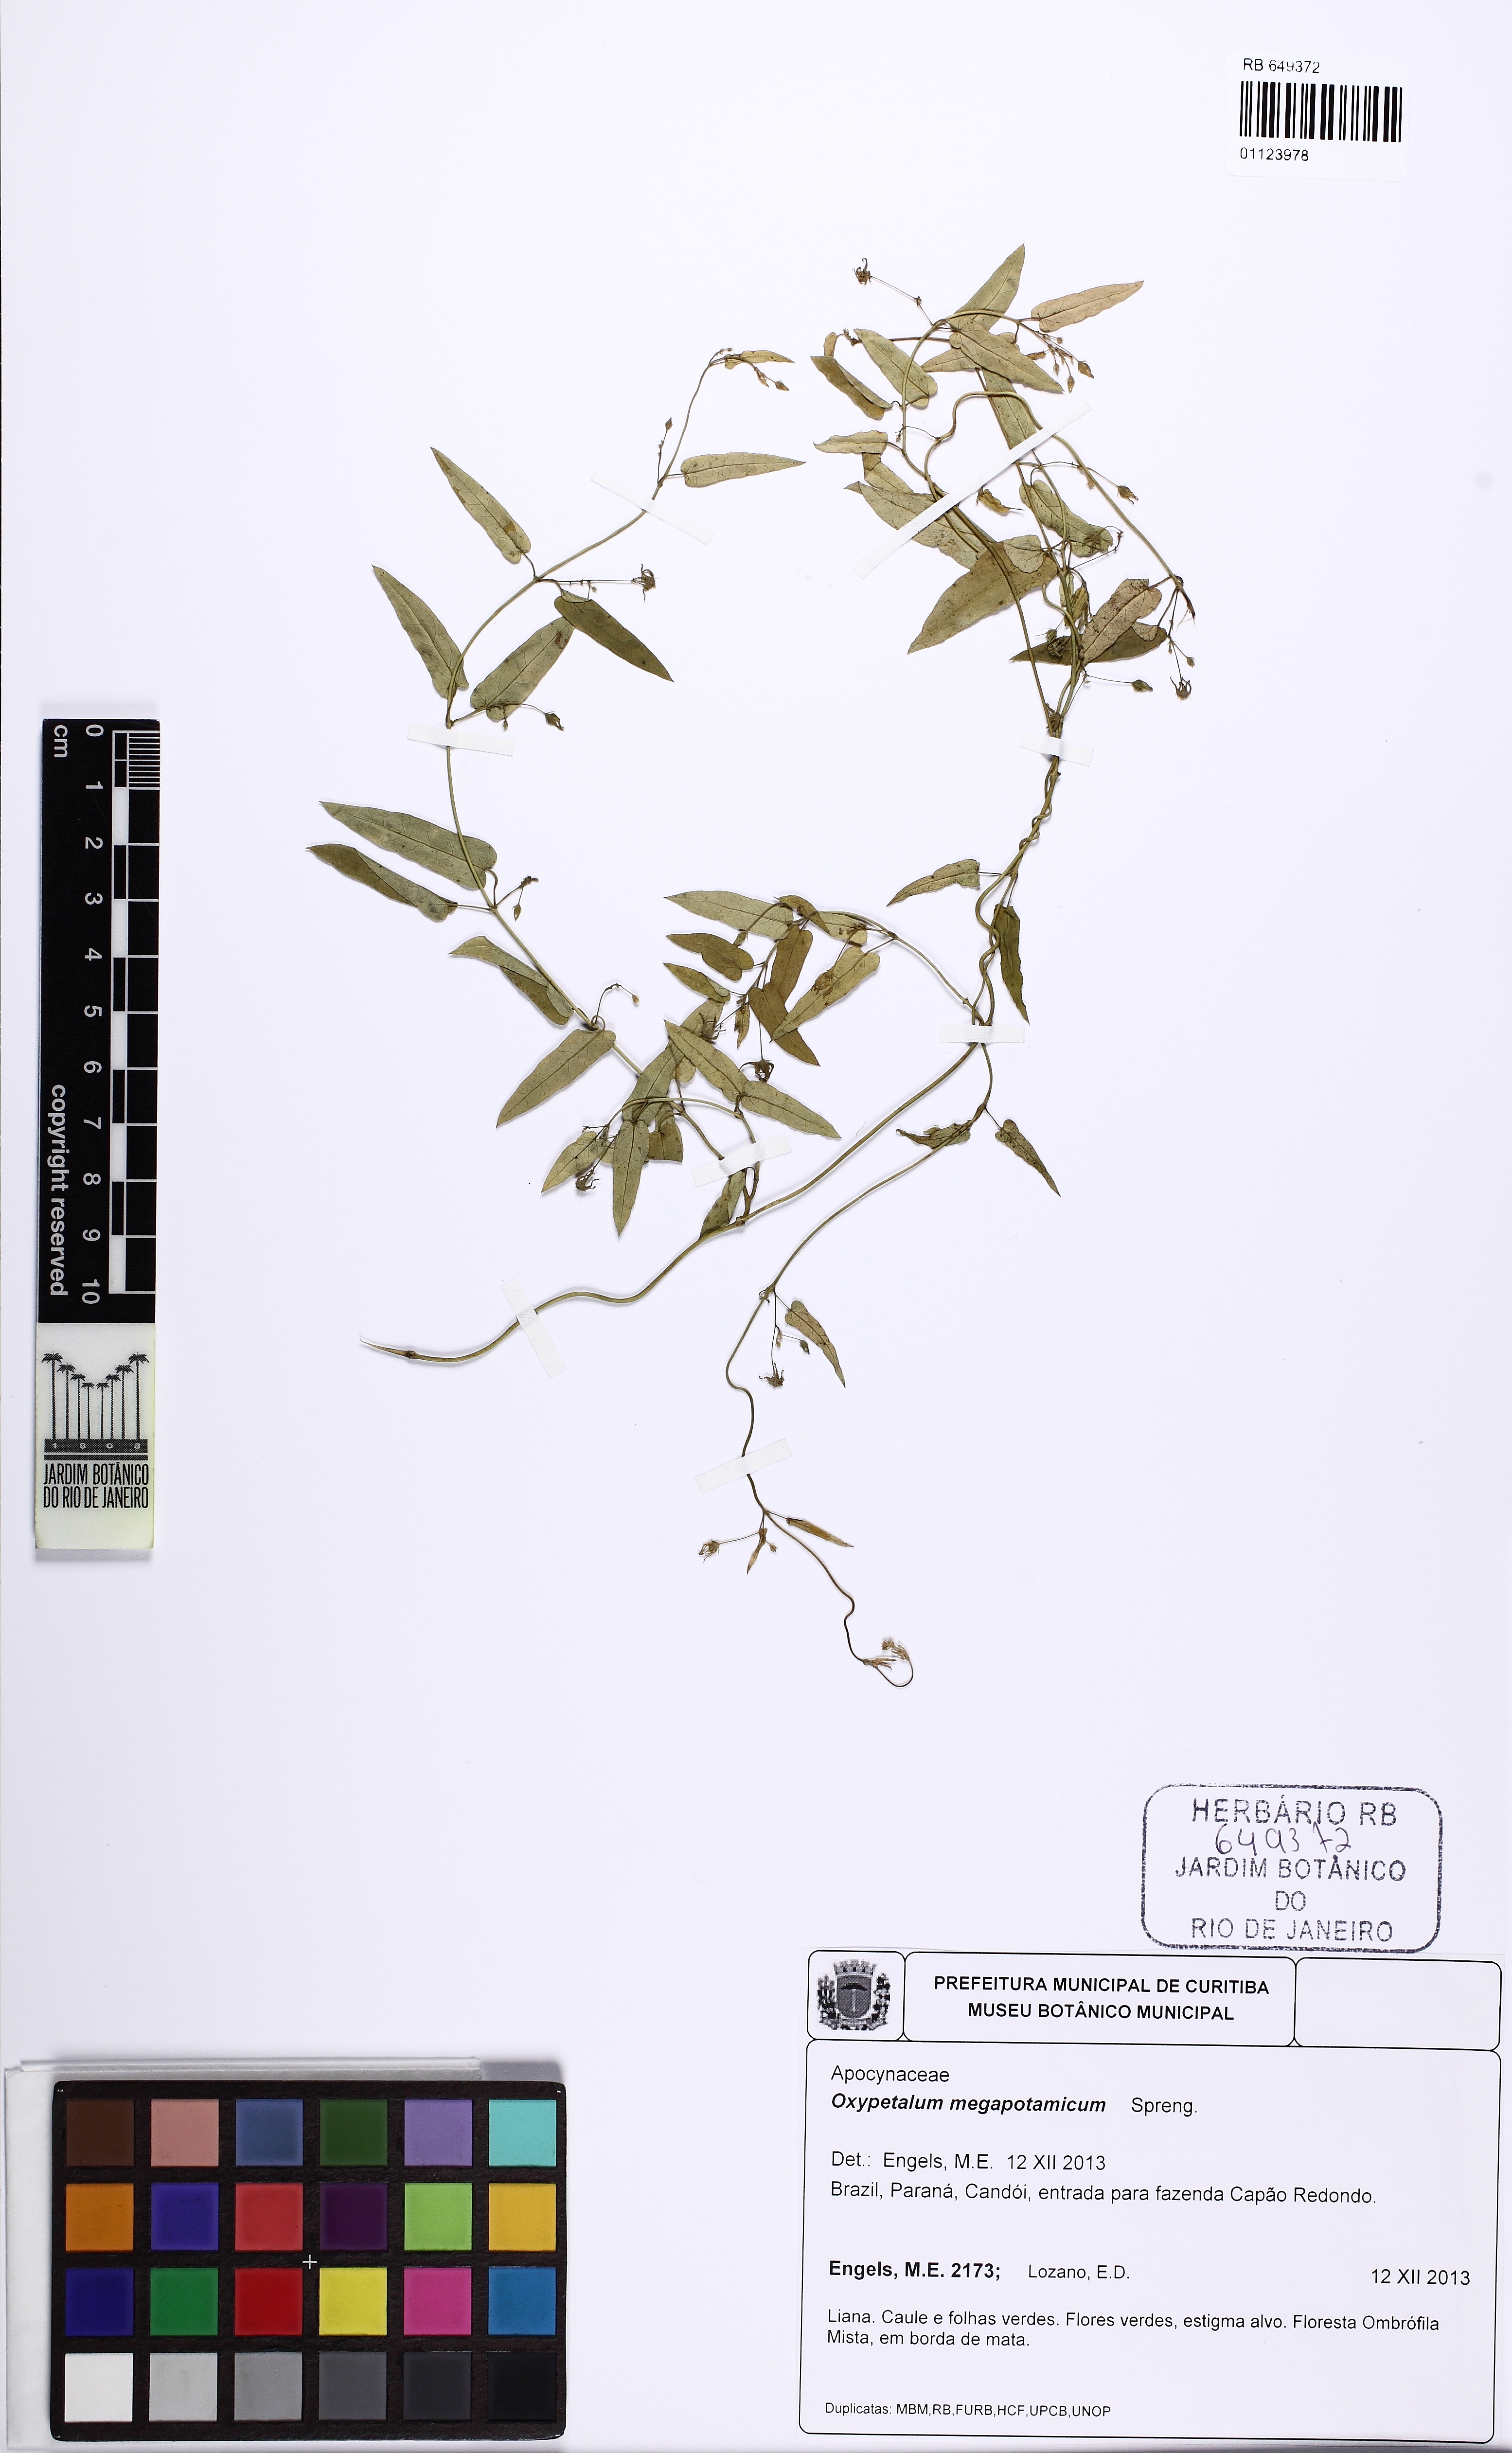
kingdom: Plantae
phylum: Tracheophyta
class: Magnoliopsida
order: Gentianales
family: Apocynaceae
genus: Oxypetalum
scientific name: Oxypetalum megapotamicum
